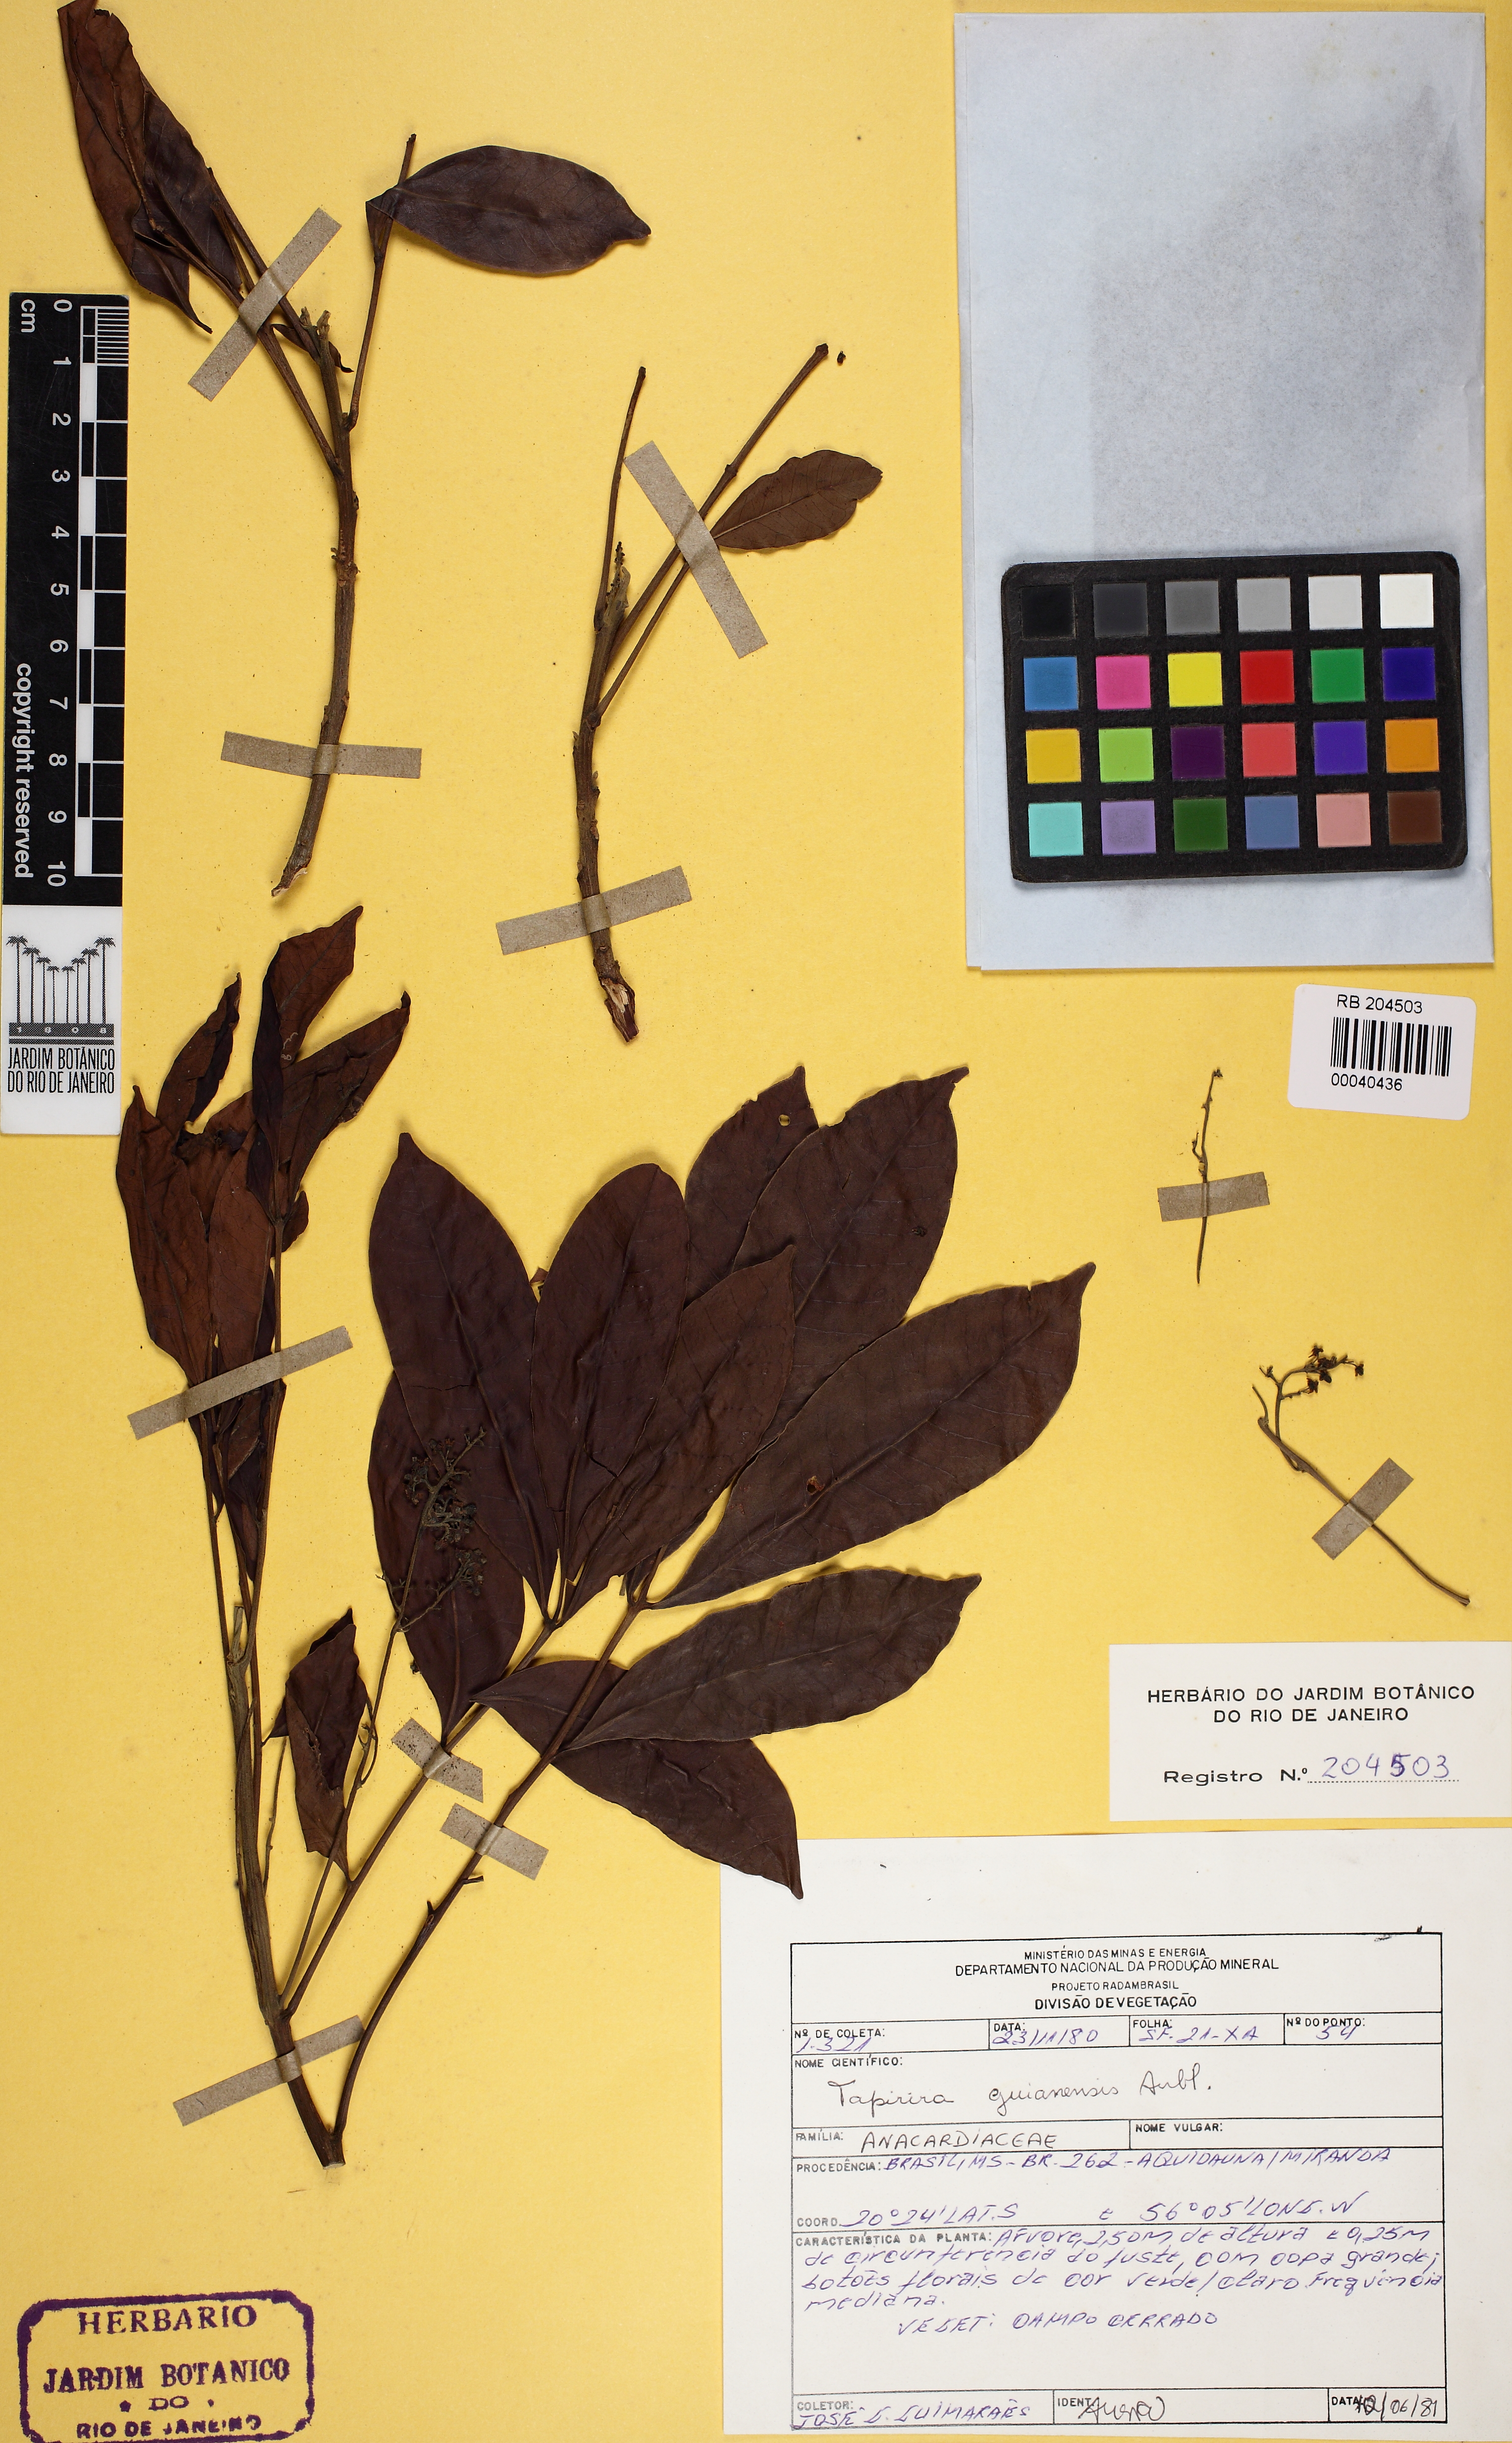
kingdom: Plantae
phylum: Tracheophyta
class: Magnoliopsida
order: Sapindales
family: Anacardiaceae
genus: Tapirira
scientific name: Tapirira guianensis
